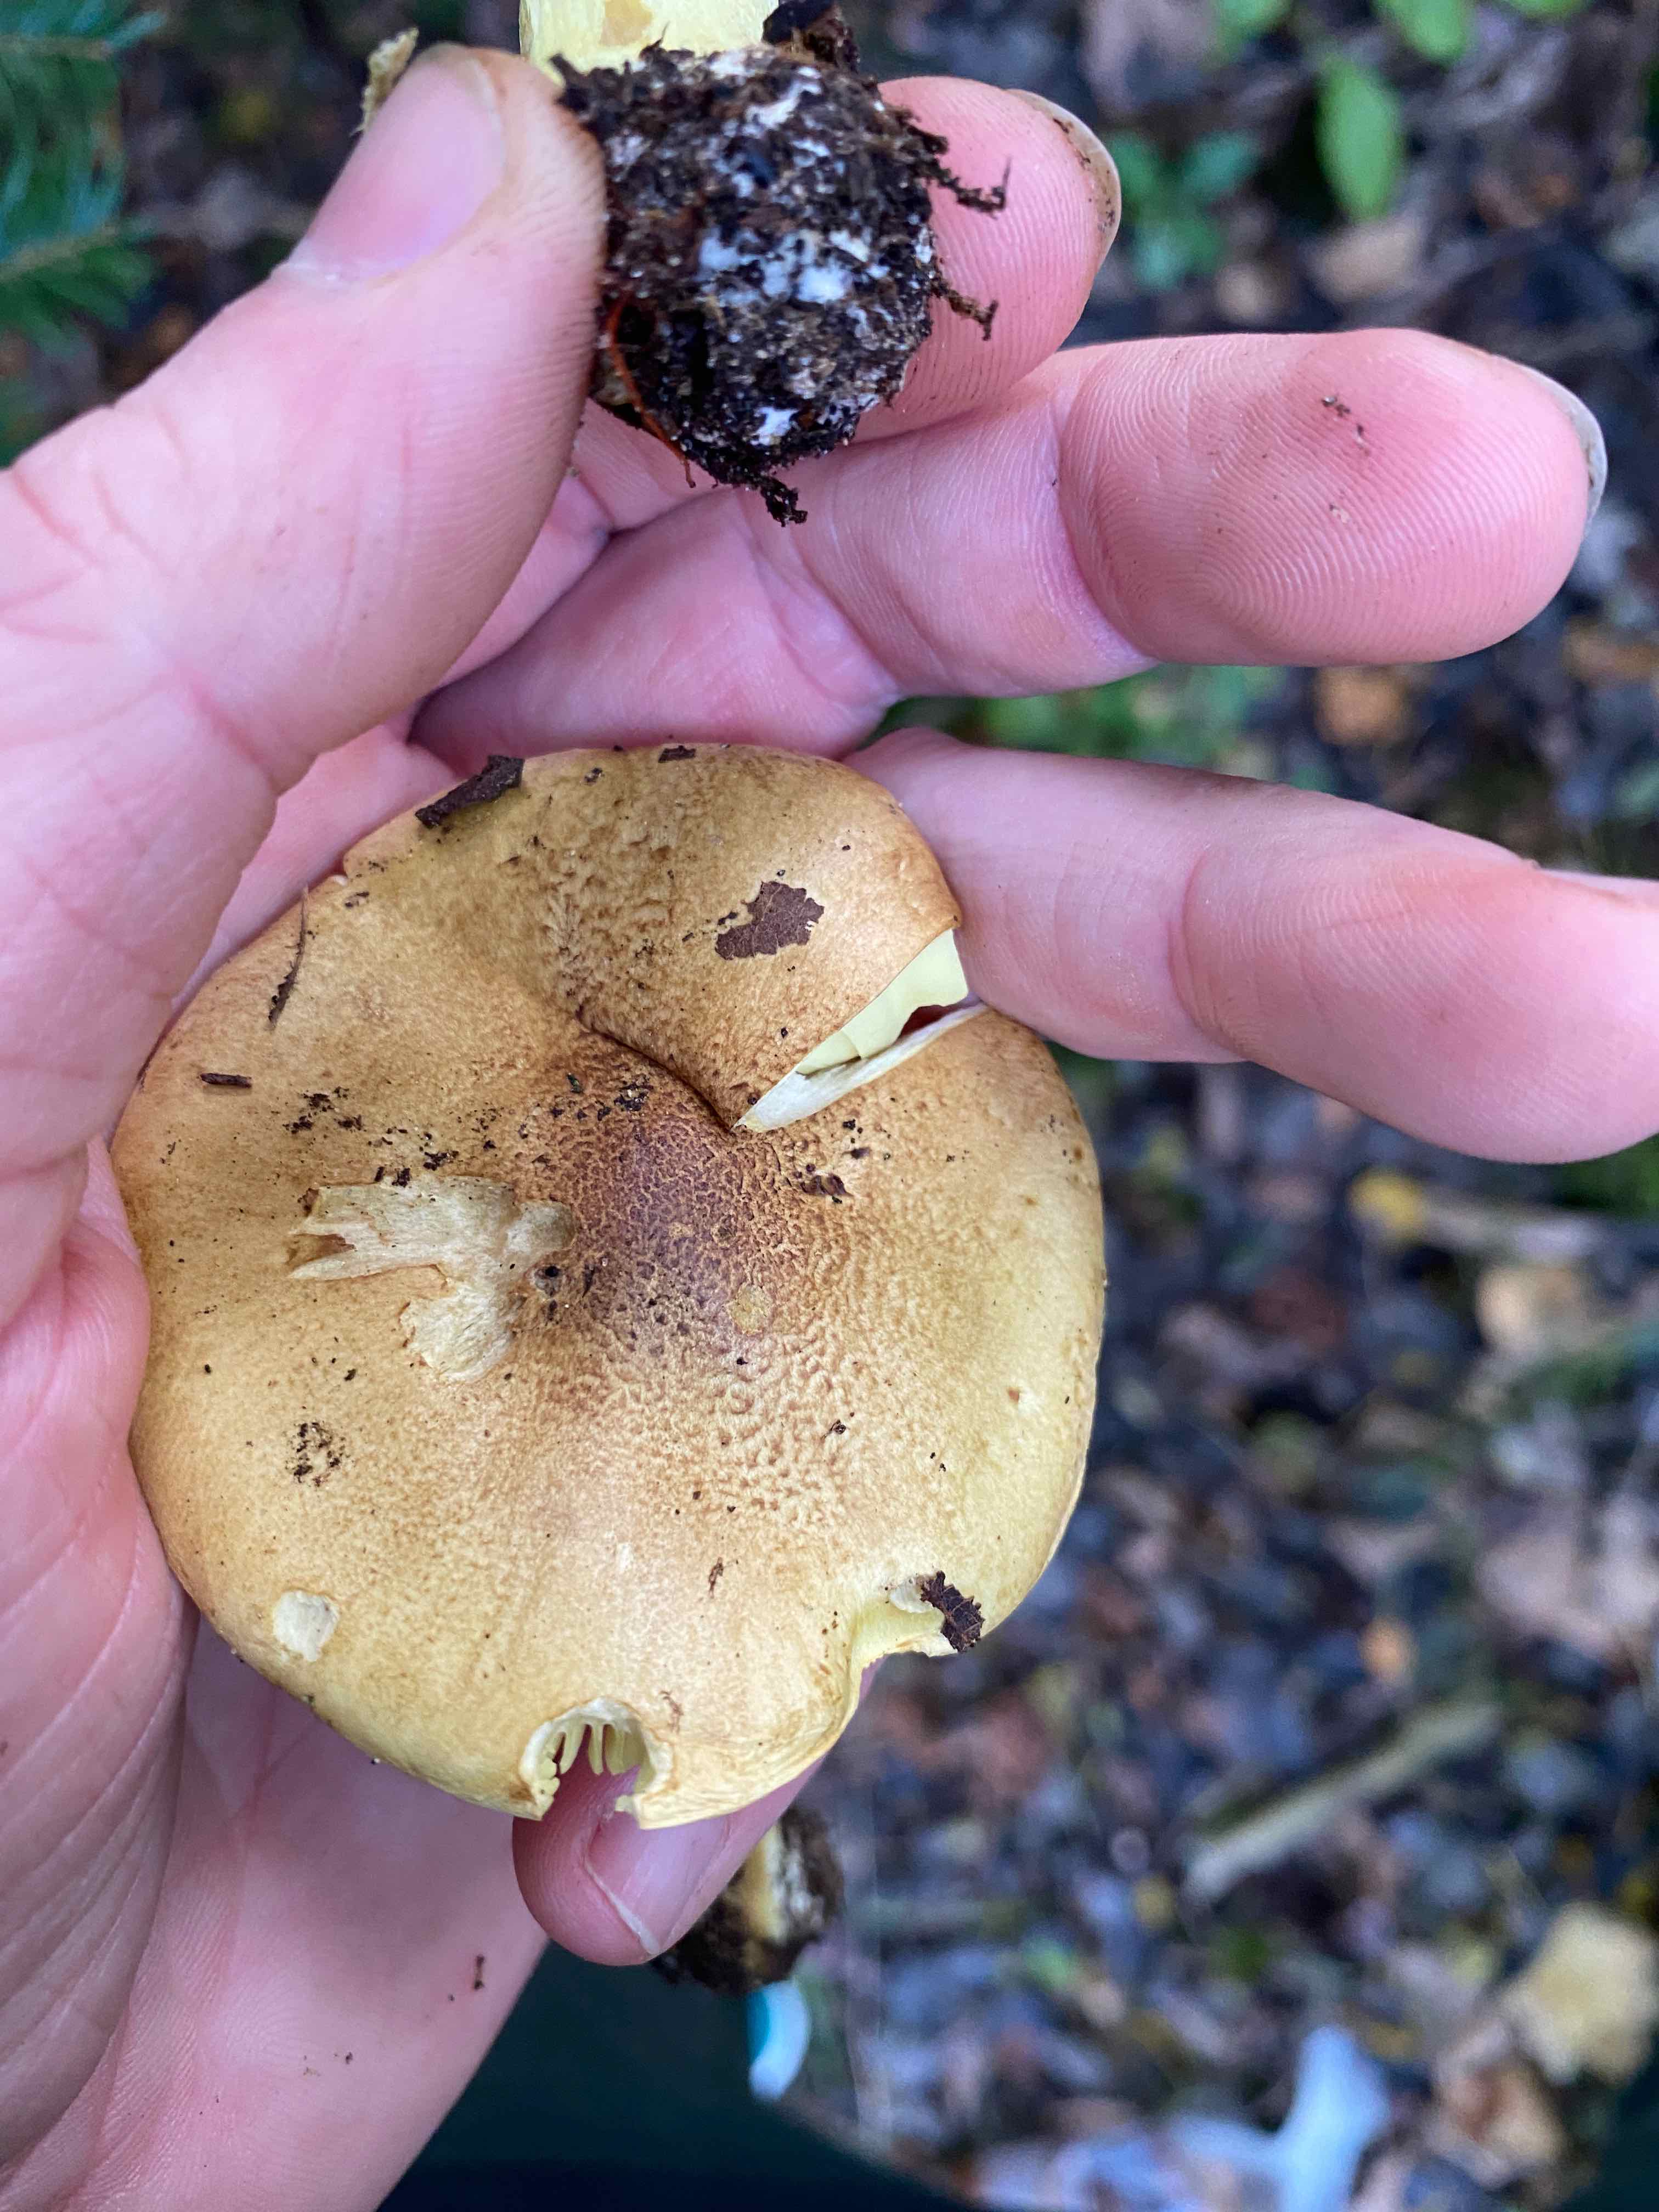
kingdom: Fungi
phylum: Basidiomycota
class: Agaricomycetes
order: Agaricales
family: Tricholomataceae
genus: Tricholoma
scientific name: Tricholoma frondosae
